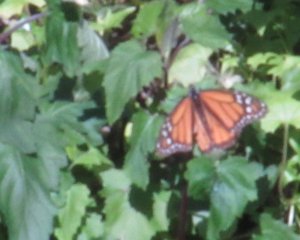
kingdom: Animalia
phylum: Arthropoda
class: Insecta
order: Lepidoptera
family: Nymphalidae
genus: Danaus
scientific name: Danaus plexippus
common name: Monarch
